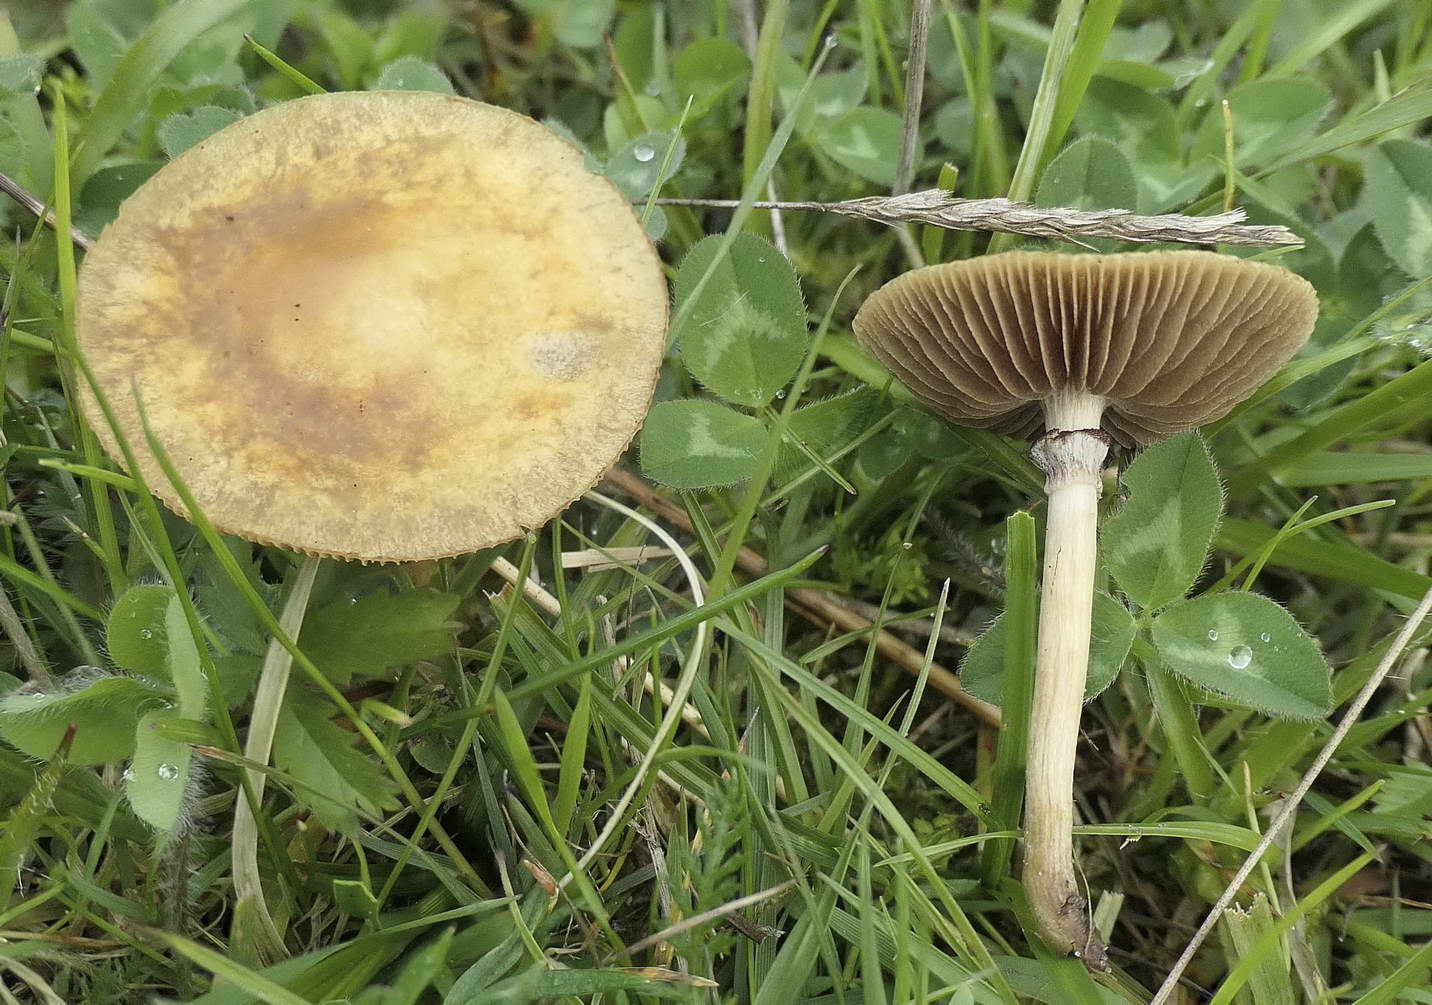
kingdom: Fungi
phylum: Basidiomycota
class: Agaricomycetes
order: Agaricales
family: Strophariaceae
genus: Agrocybe
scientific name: Agrocybe elatella
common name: mose-agerhat
